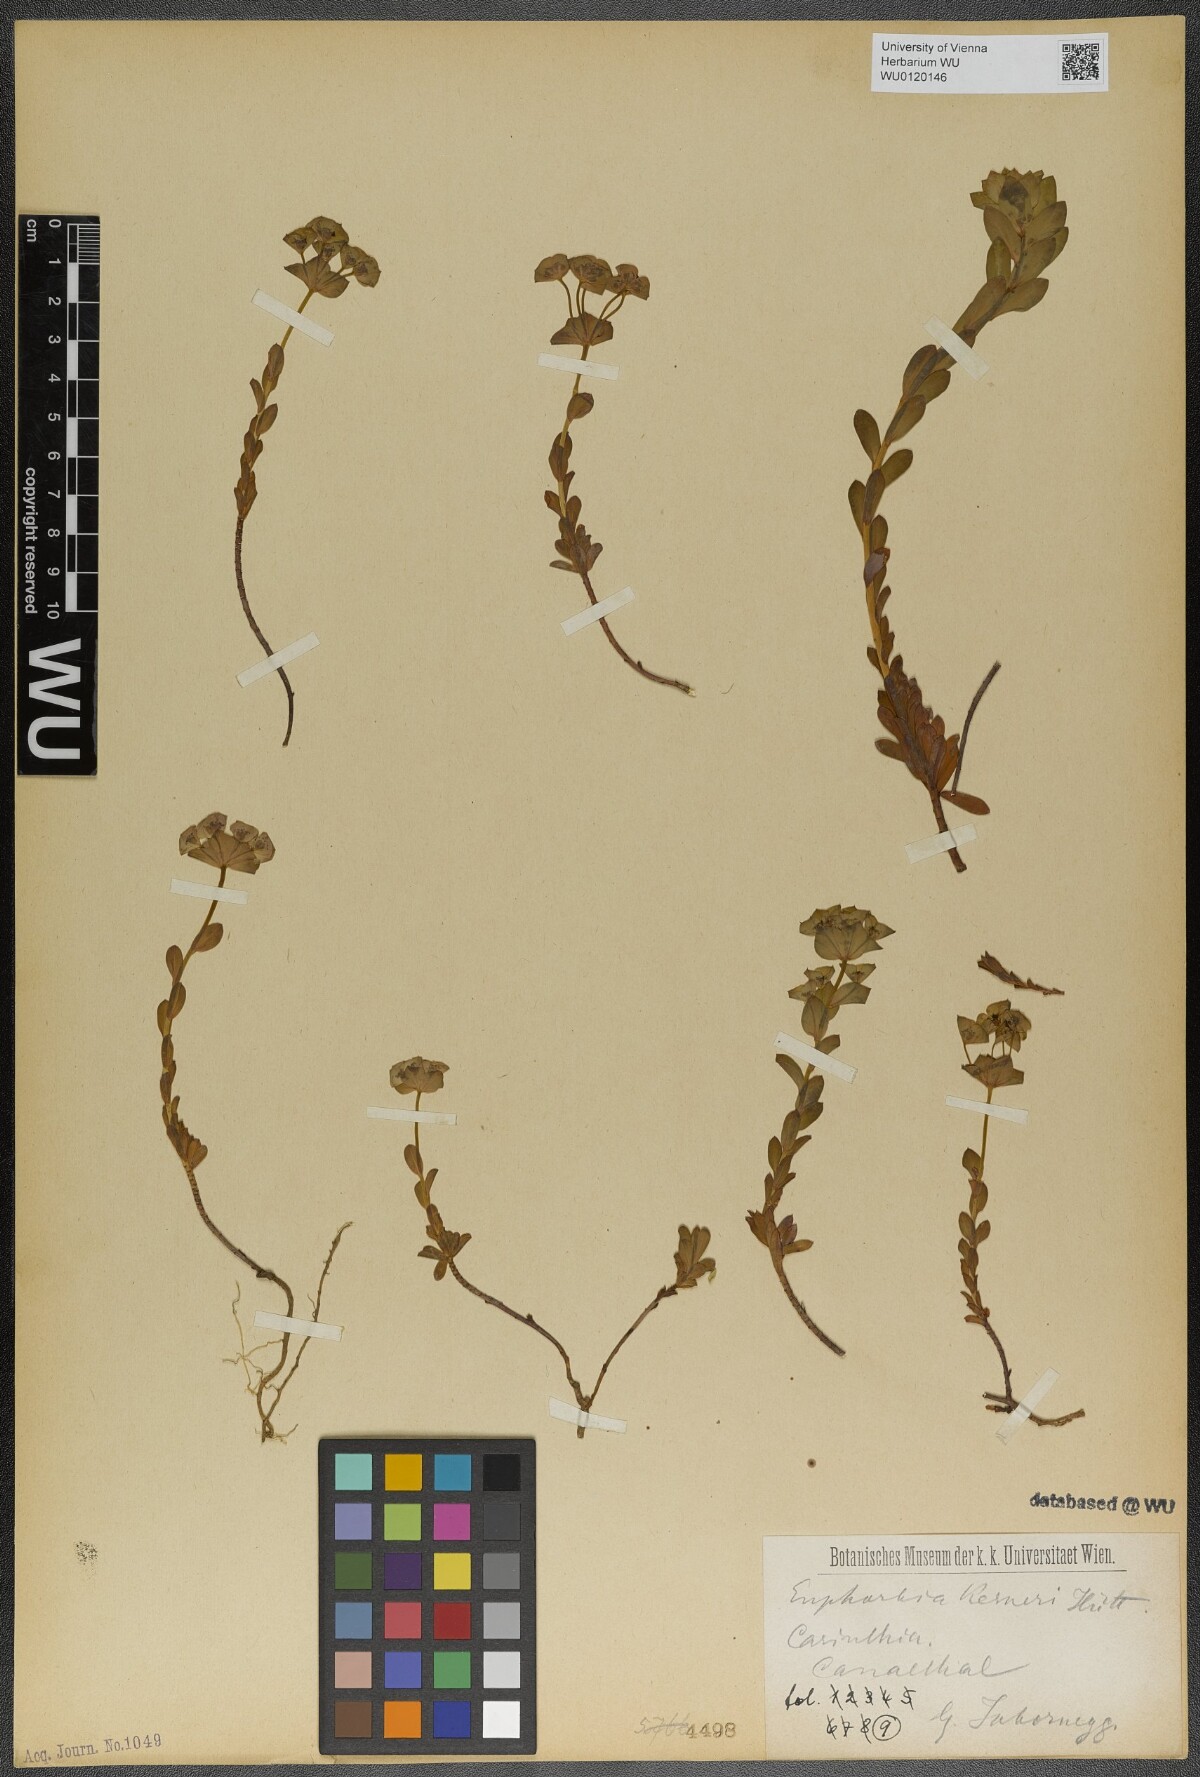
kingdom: Plantae
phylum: Tracheophyta
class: Magnoliopsida
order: Malpighiales
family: Euphorbiaceae
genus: Euphorbia
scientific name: Euphorbia kerneri
